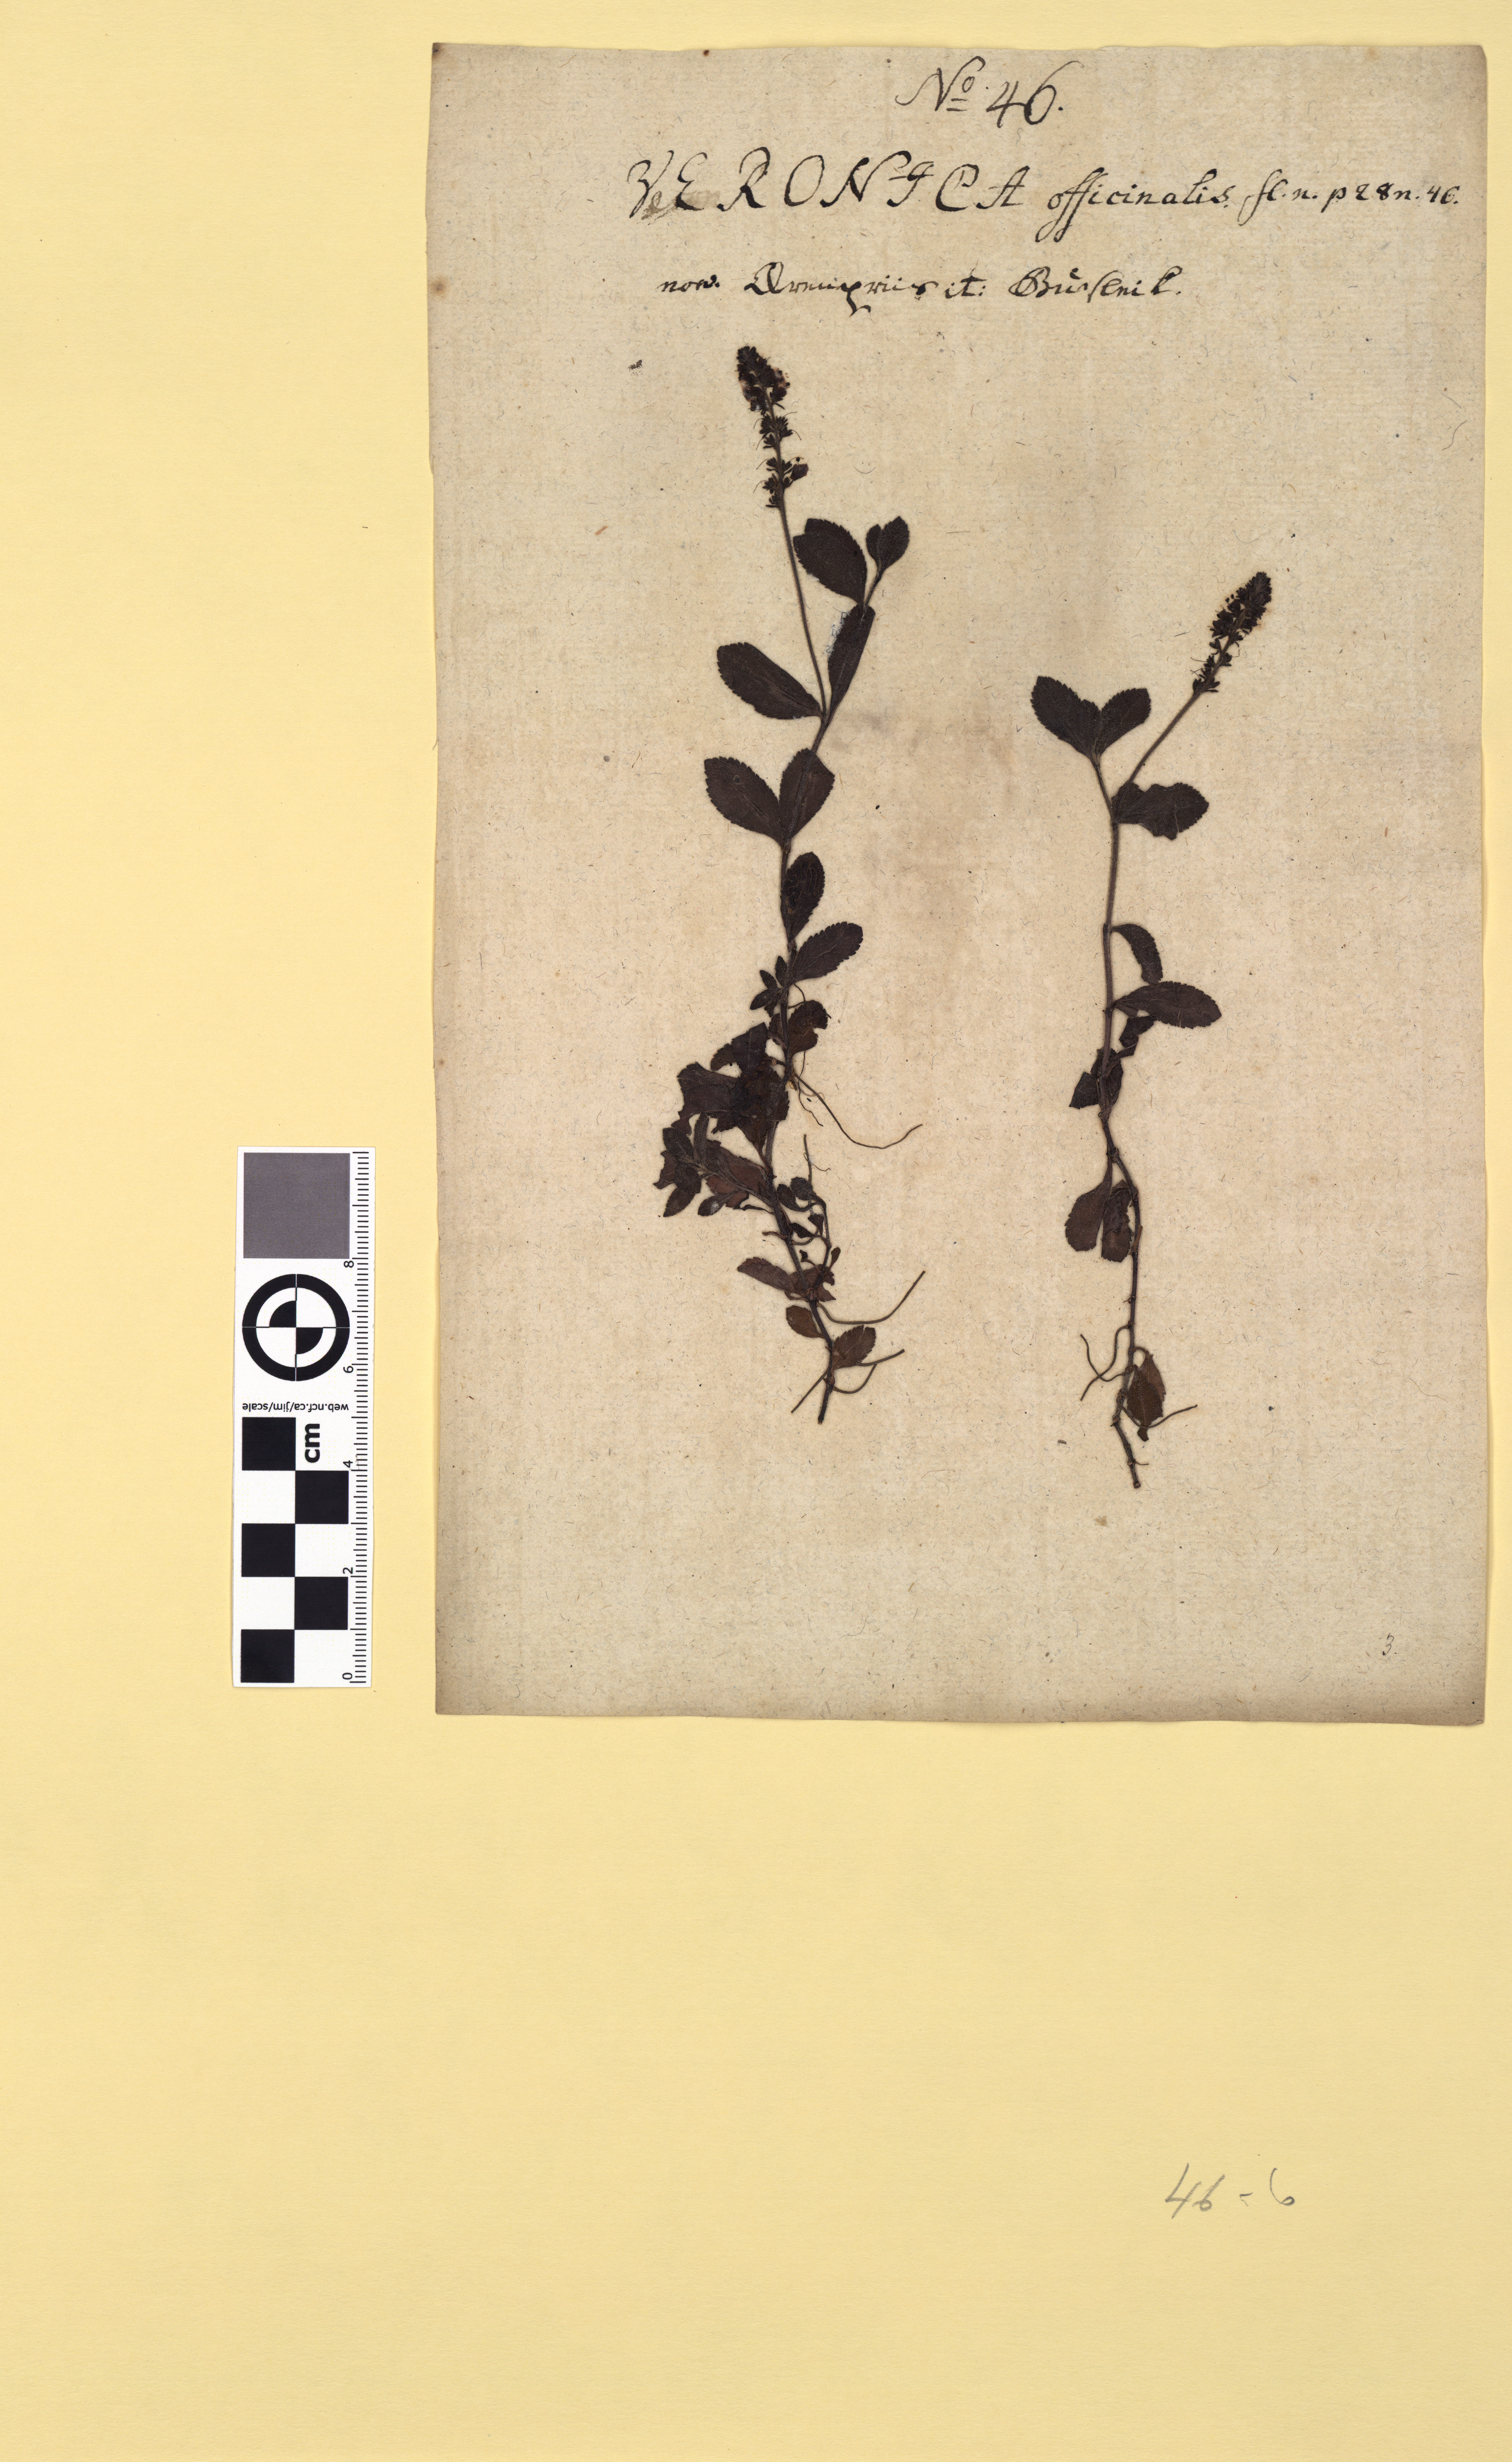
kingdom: Plantae
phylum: Tracheophyta
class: Magnoliopsida
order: Lamiales
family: Plantaginaceae
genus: Veronica
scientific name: Veronica officinalis
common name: Common speedwell
